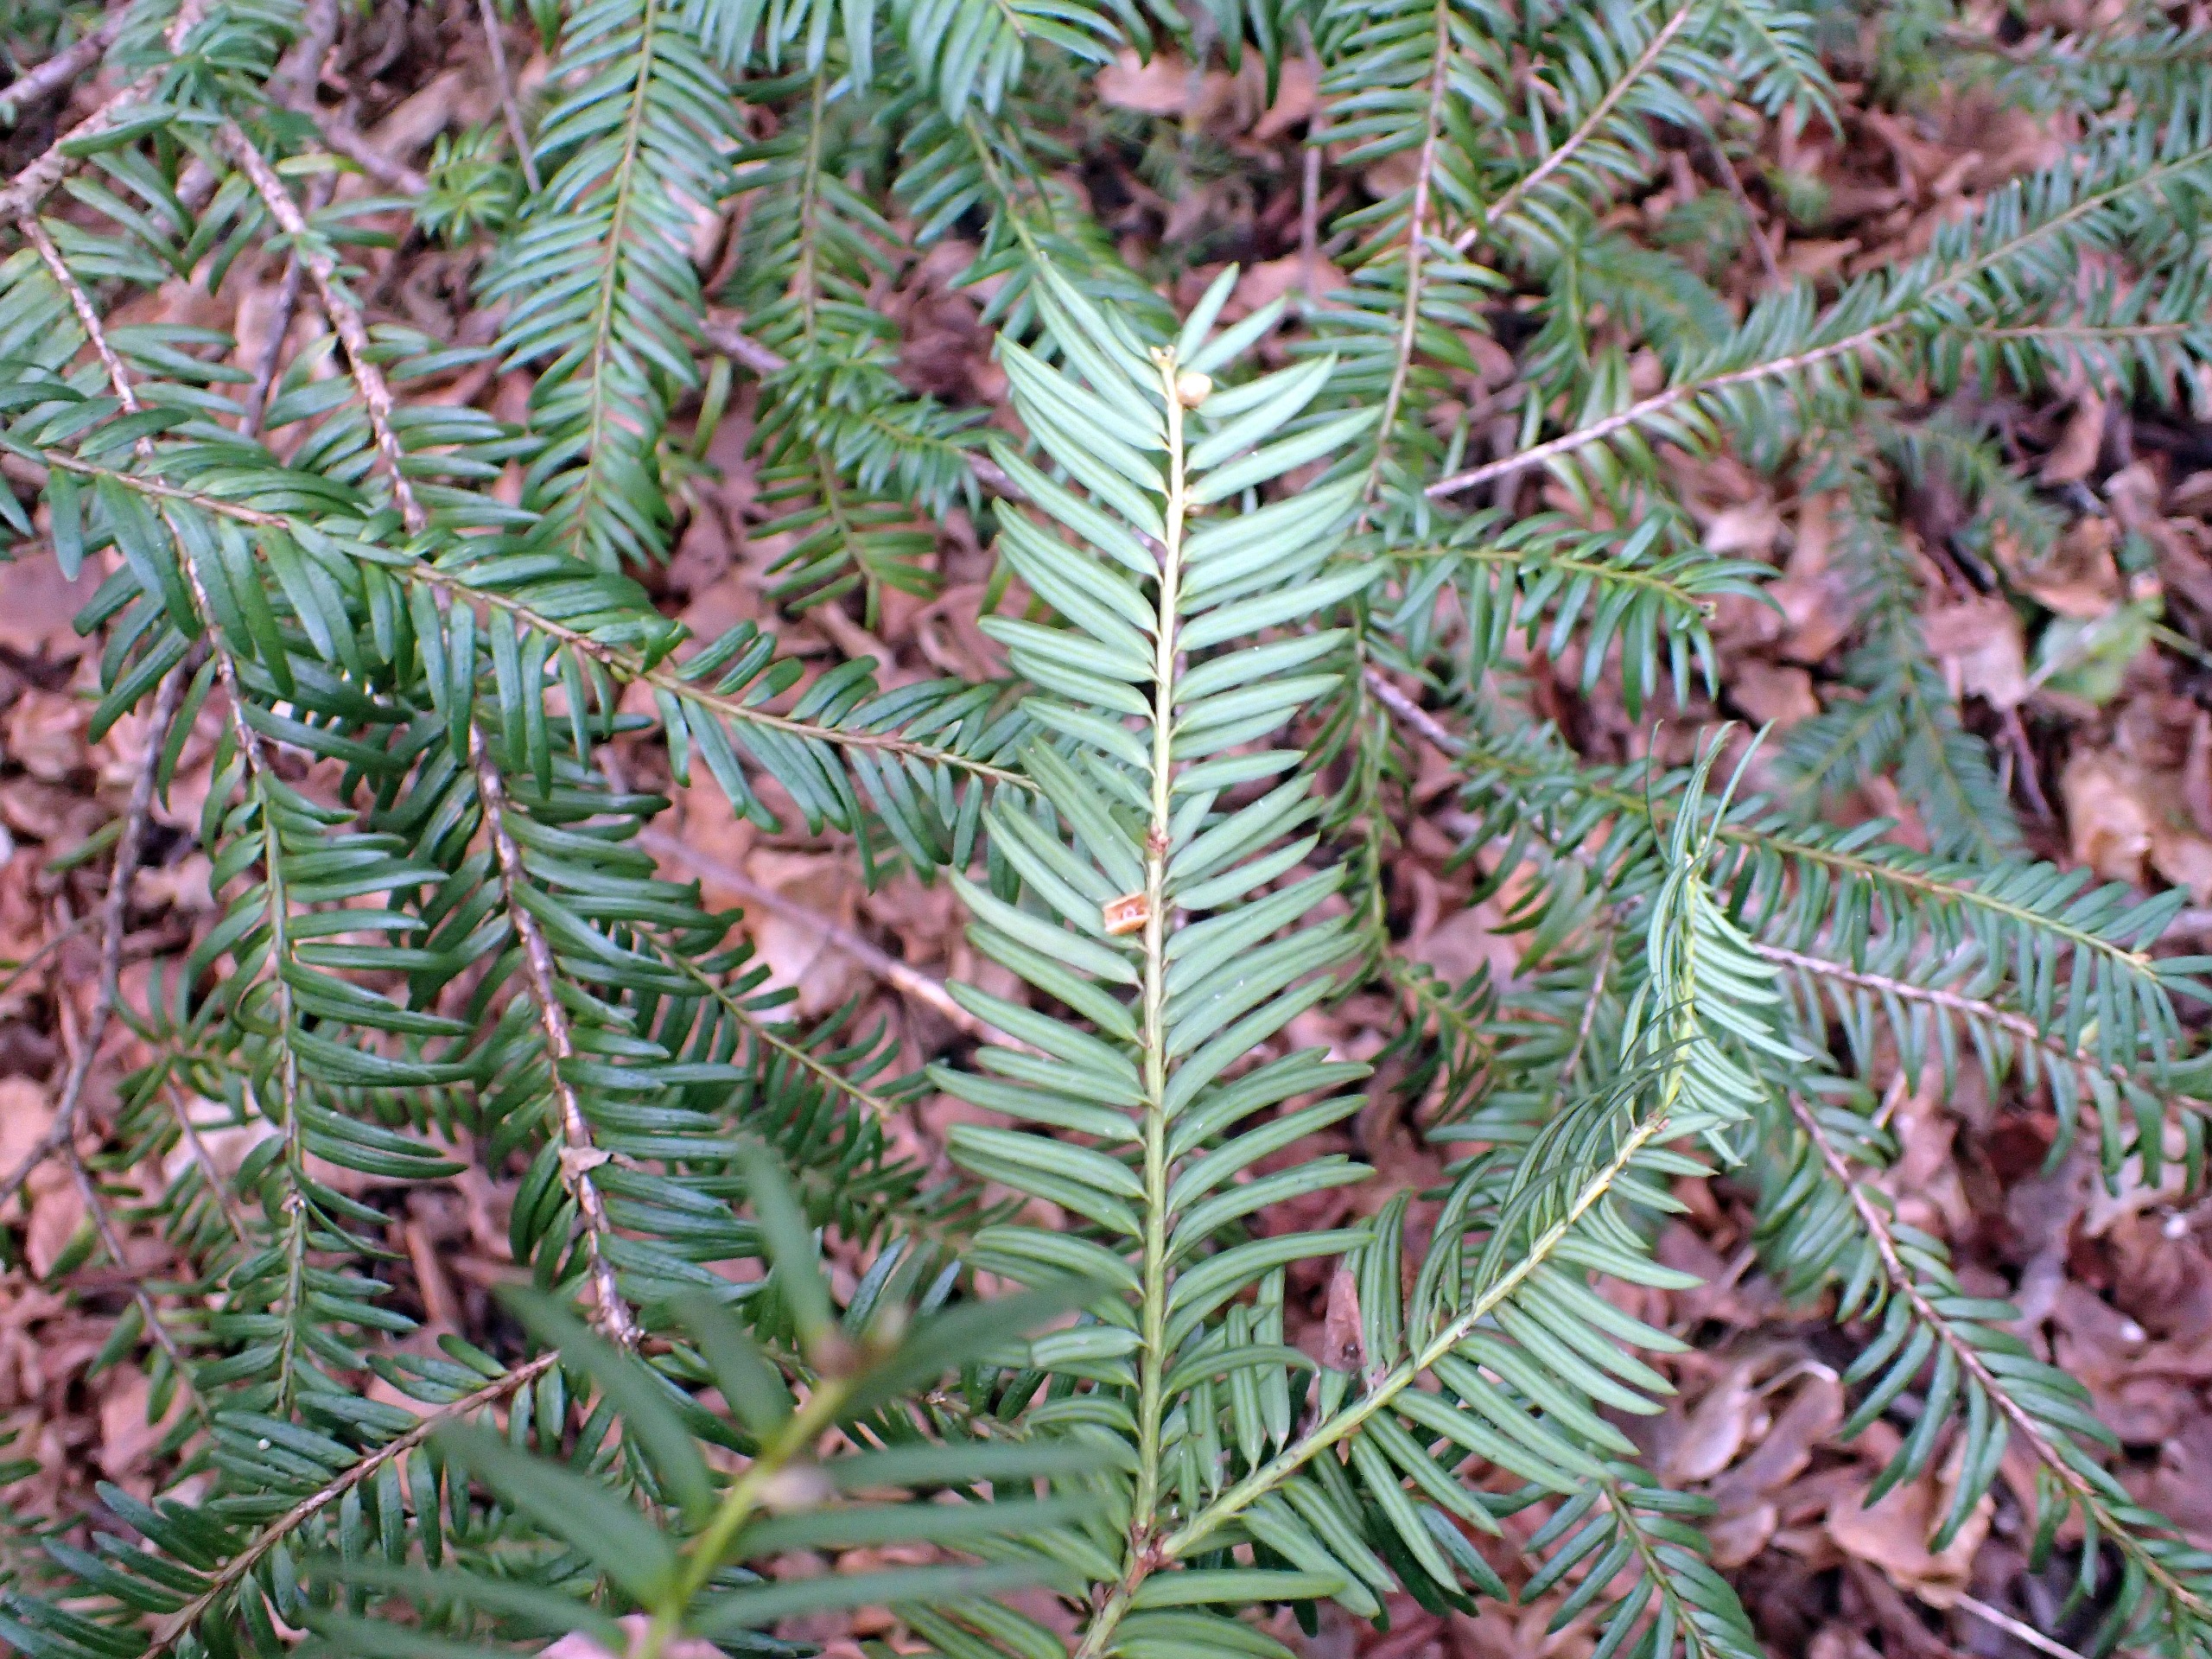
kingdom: Plantae
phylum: Tracheophyta
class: Pinopsida
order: Pinales
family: Taxaceae
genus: Taxus
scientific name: Taxus baccata
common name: Almindelig taks
